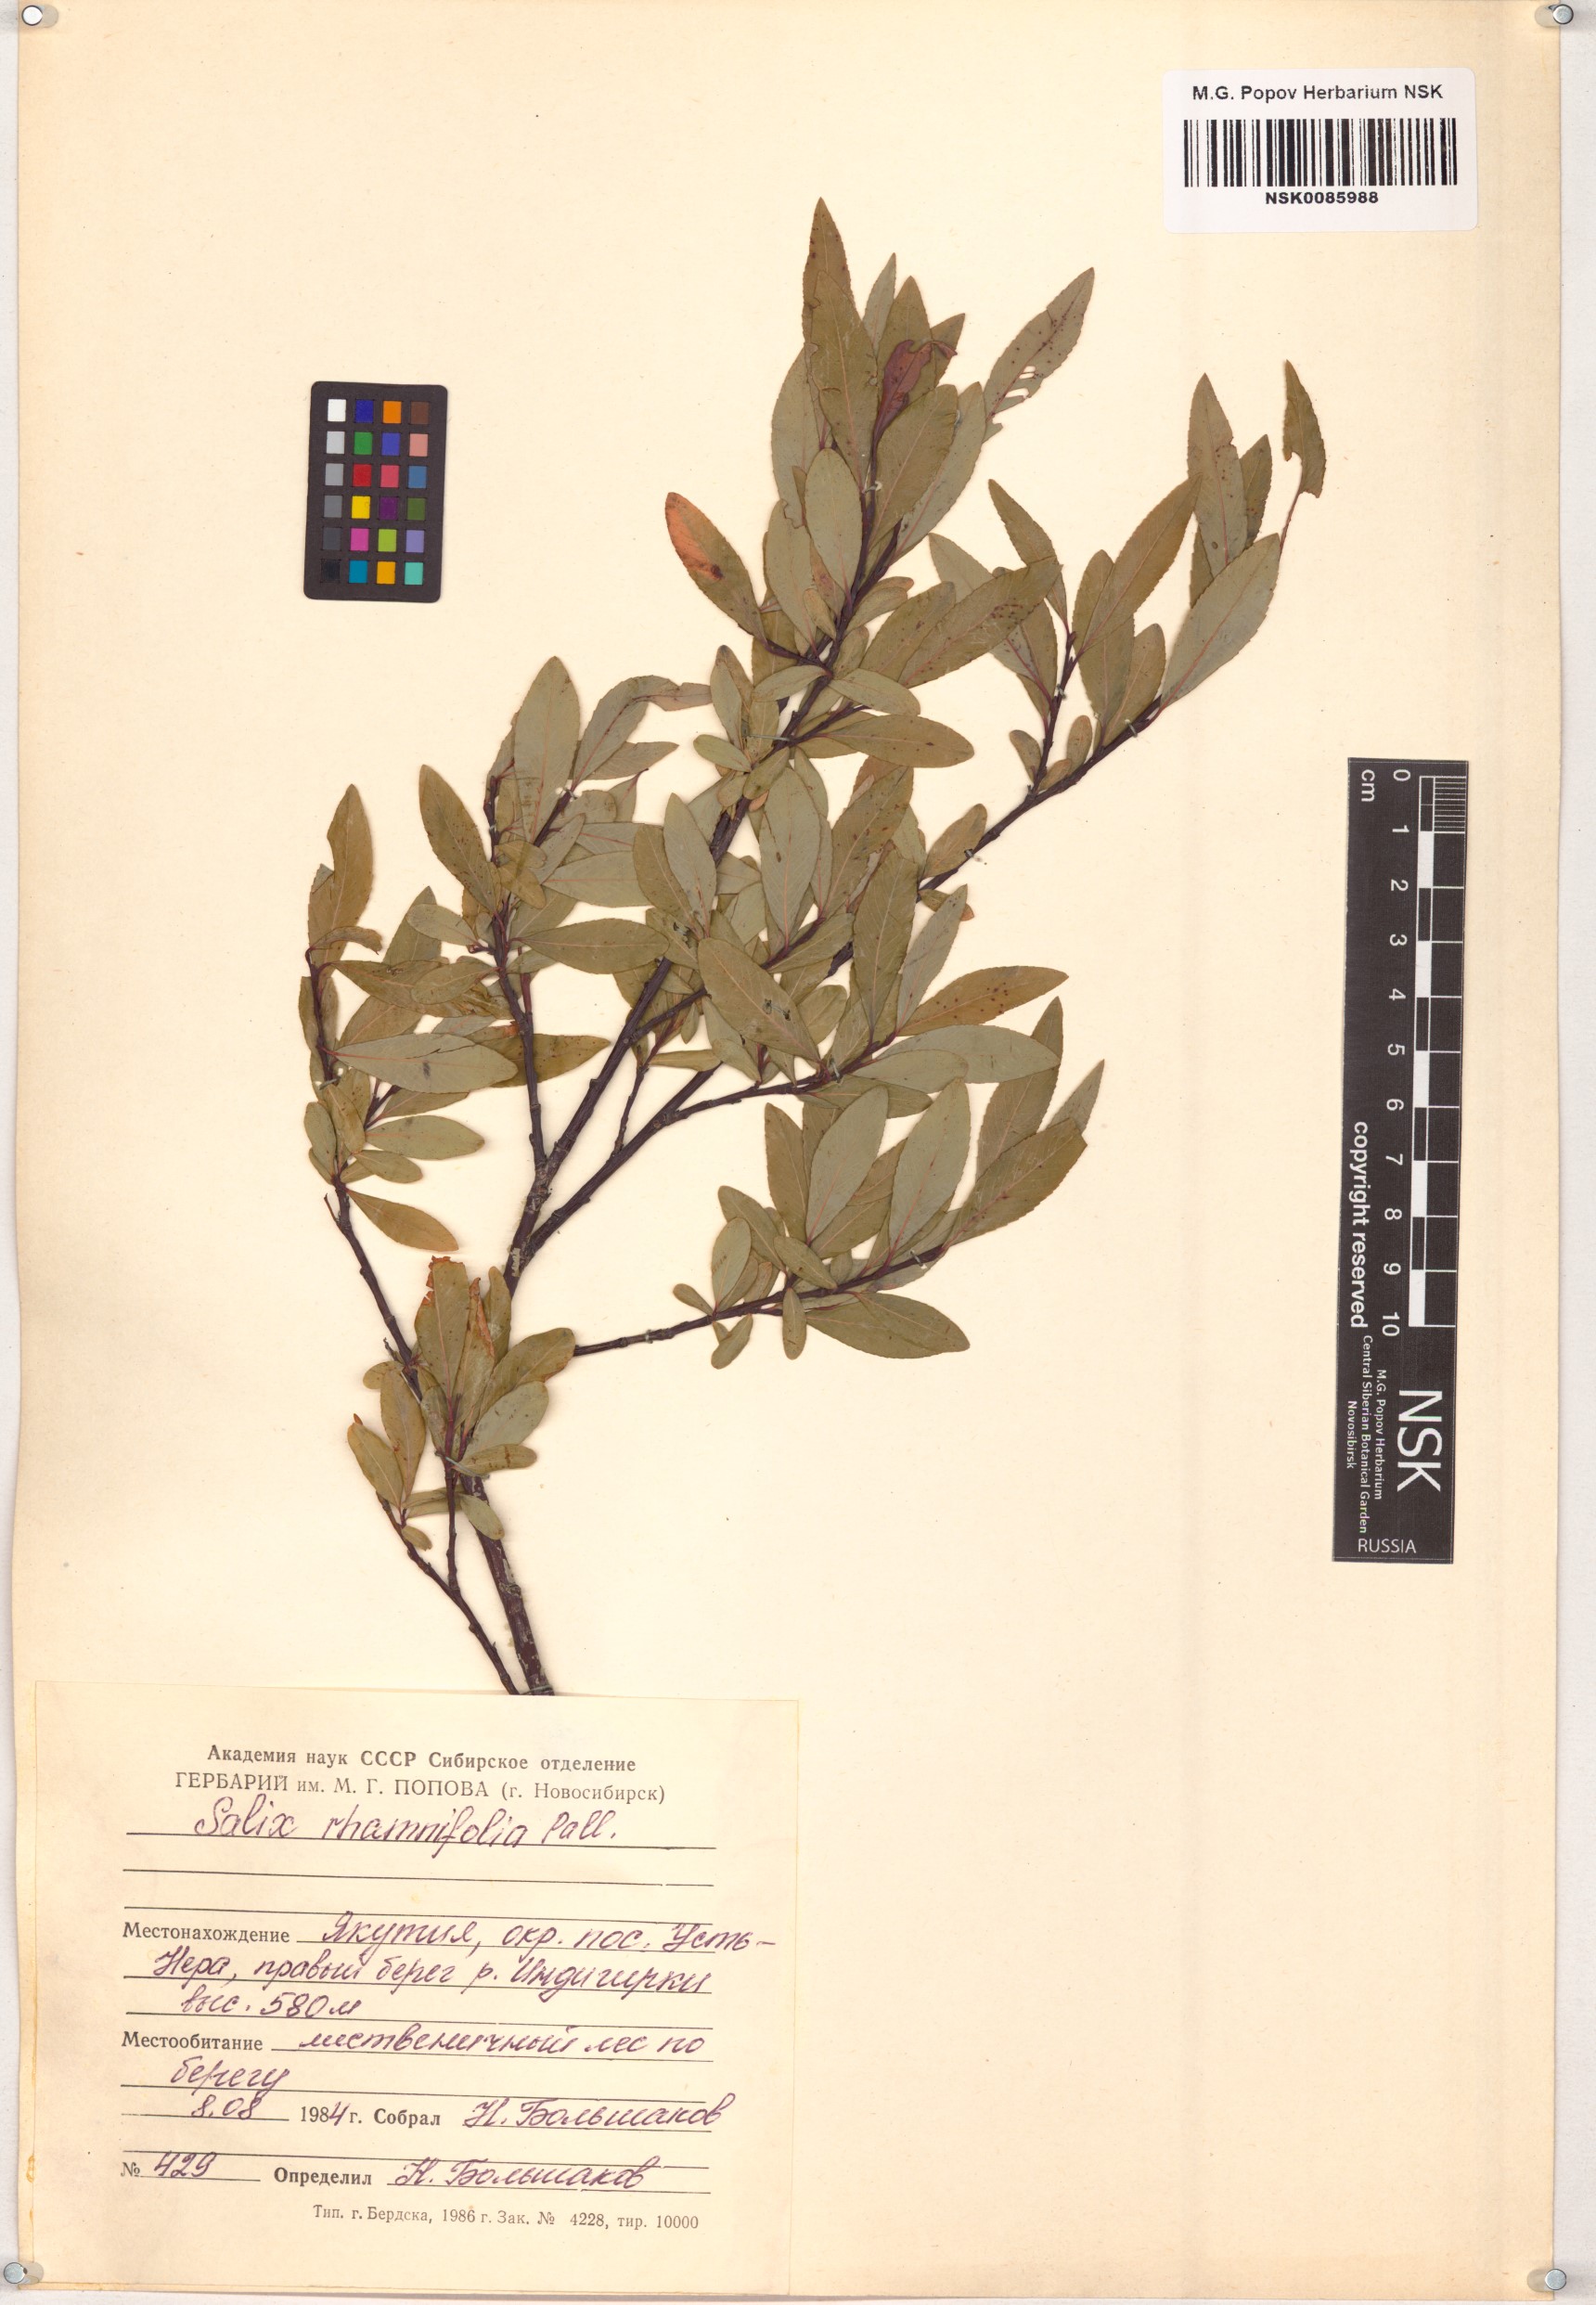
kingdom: Plantae
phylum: Tracheophyta
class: Magnoliopsida
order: Malpighiales
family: Salicaceae
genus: Salix
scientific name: Salix rhamnifolia
